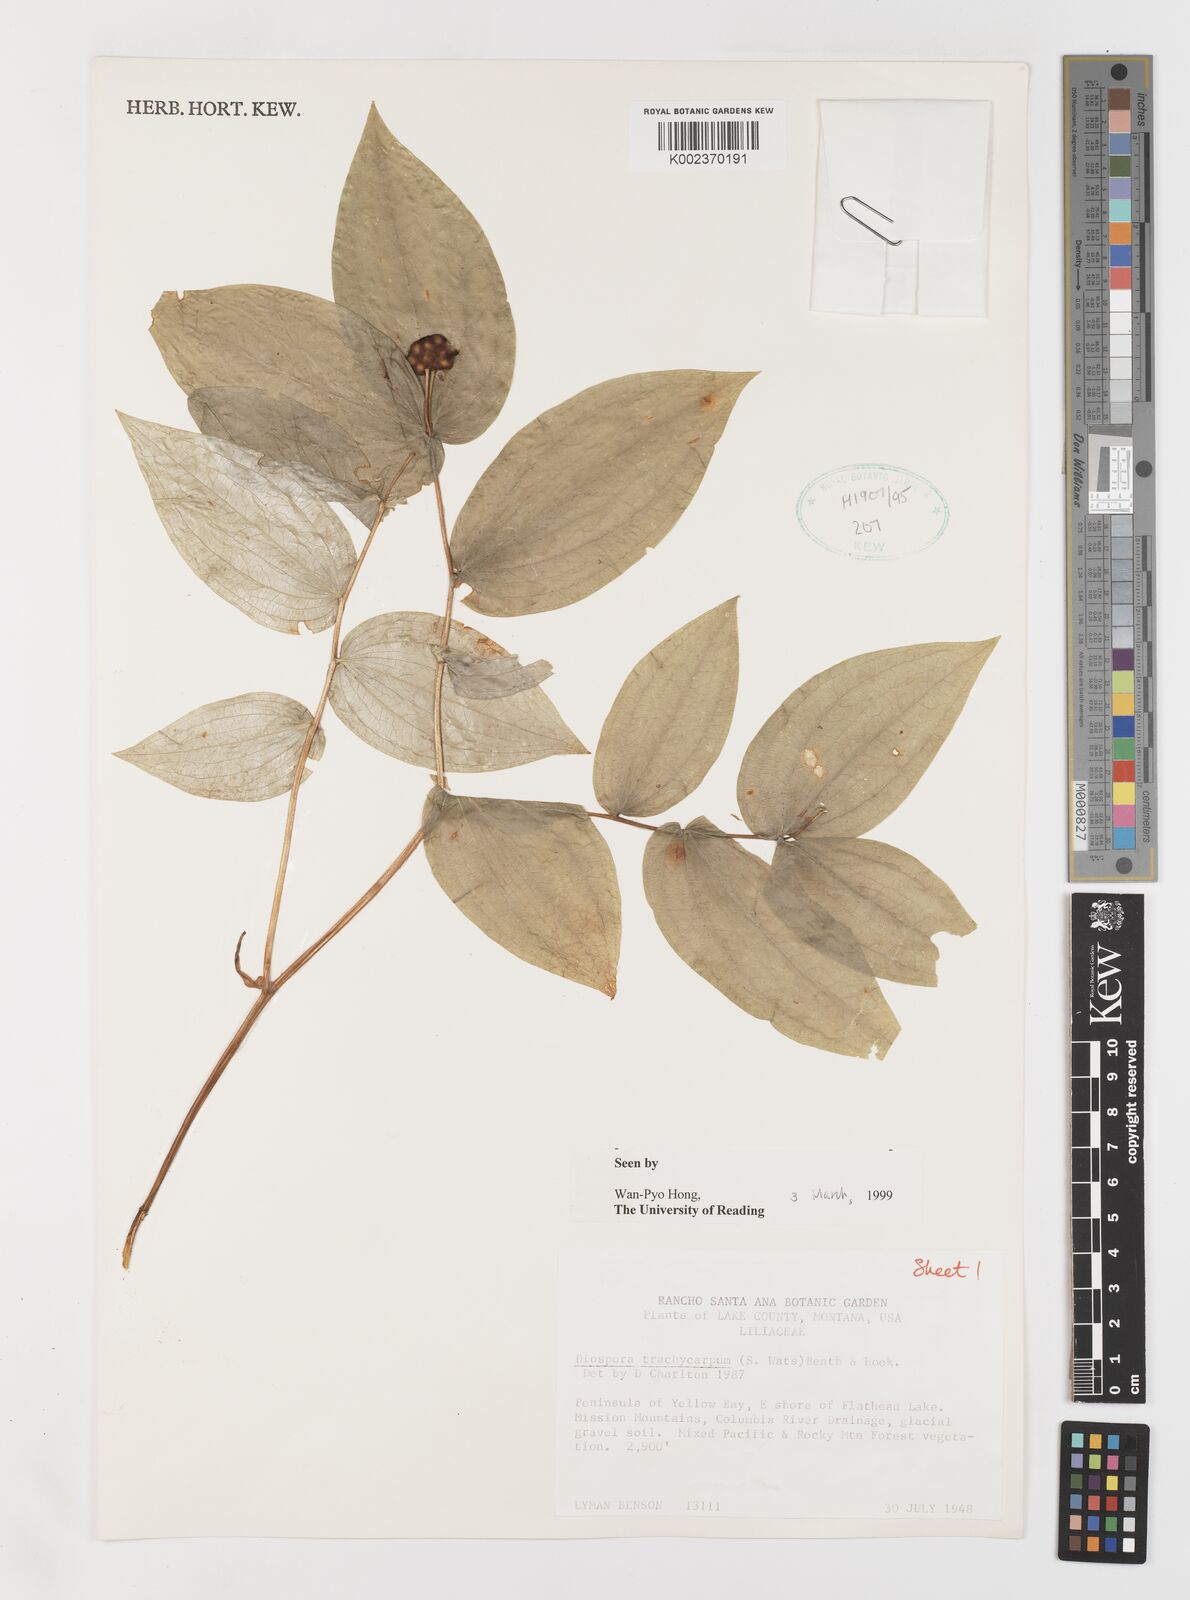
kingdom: Plantae
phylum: Tracheophyta
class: Liliopsida
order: Liliales
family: Liliaceae
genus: Prosartes
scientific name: Prosartes trachycarpa
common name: Rough-fruit fairy-bells
